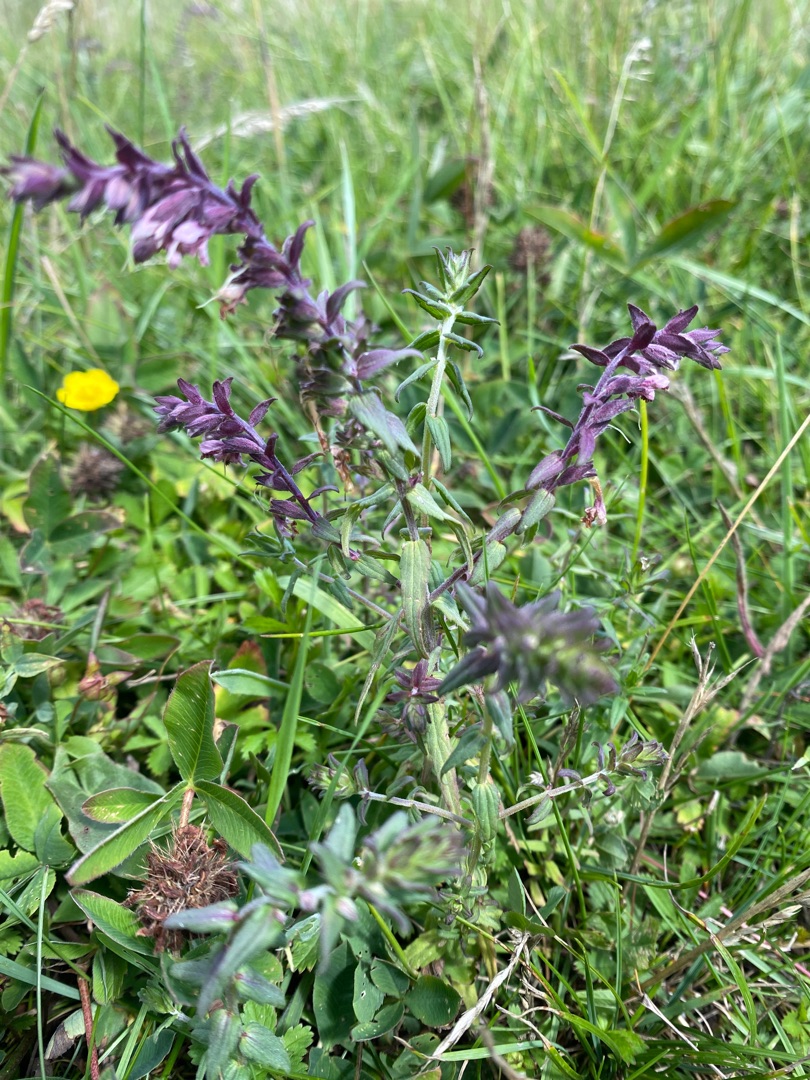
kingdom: Plantae
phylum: Tracheophyta
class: Magnoliopsida
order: Lamiales
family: Orobanchaceae
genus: Odontites
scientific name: Odontites vulgaris
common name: Høst-rødtop
